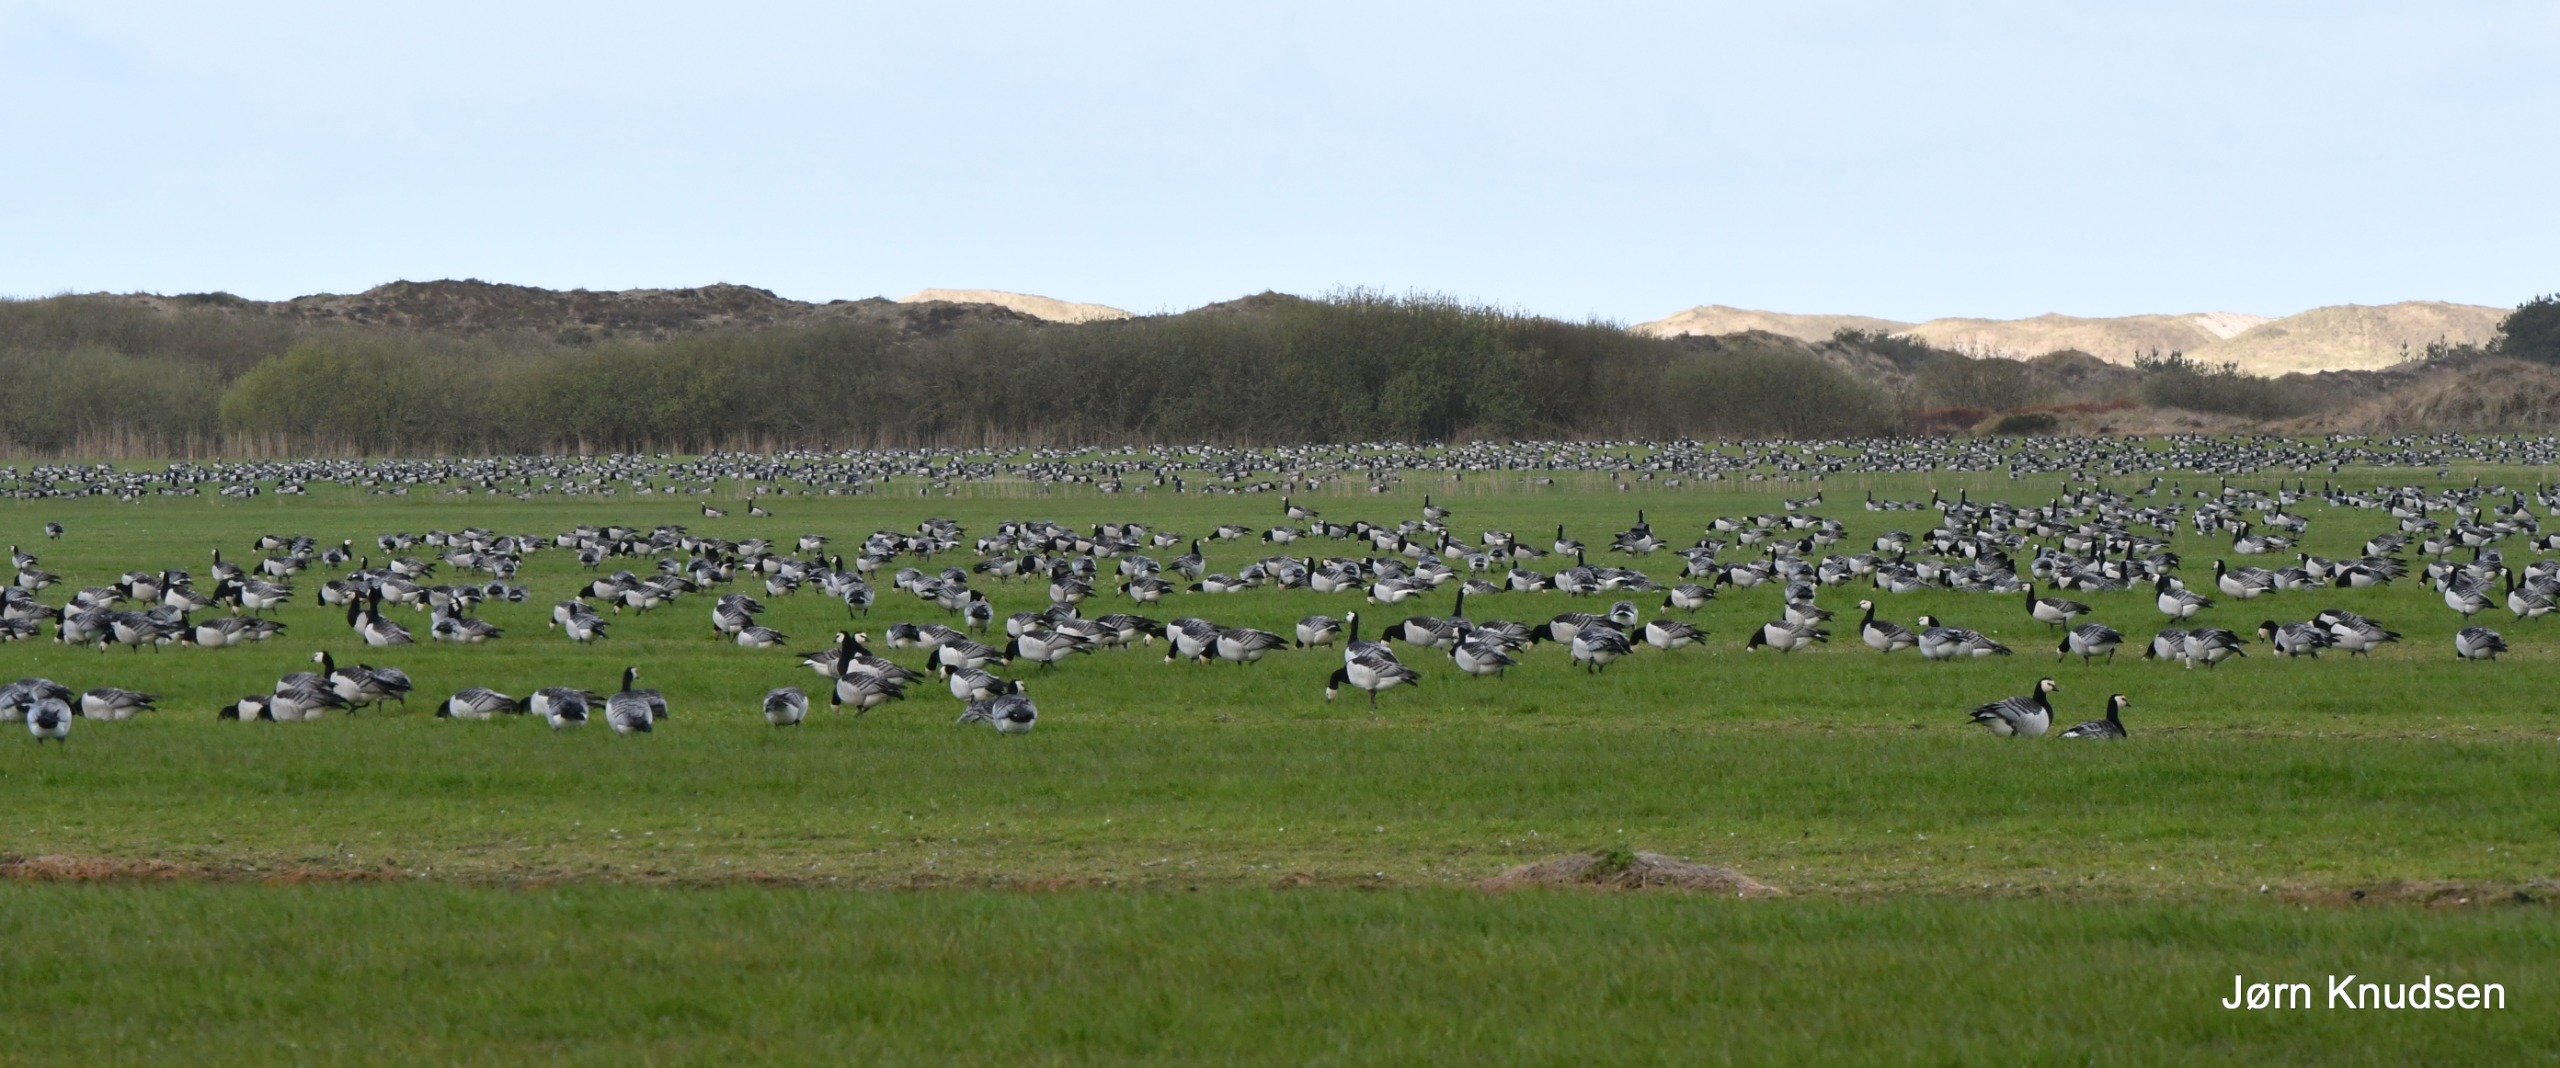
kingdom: Animalia
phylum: Chordata
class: Aves
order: Anseriformes
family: Anatidae
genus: Branta
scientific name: Branta leucopsis
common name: Bramgås
